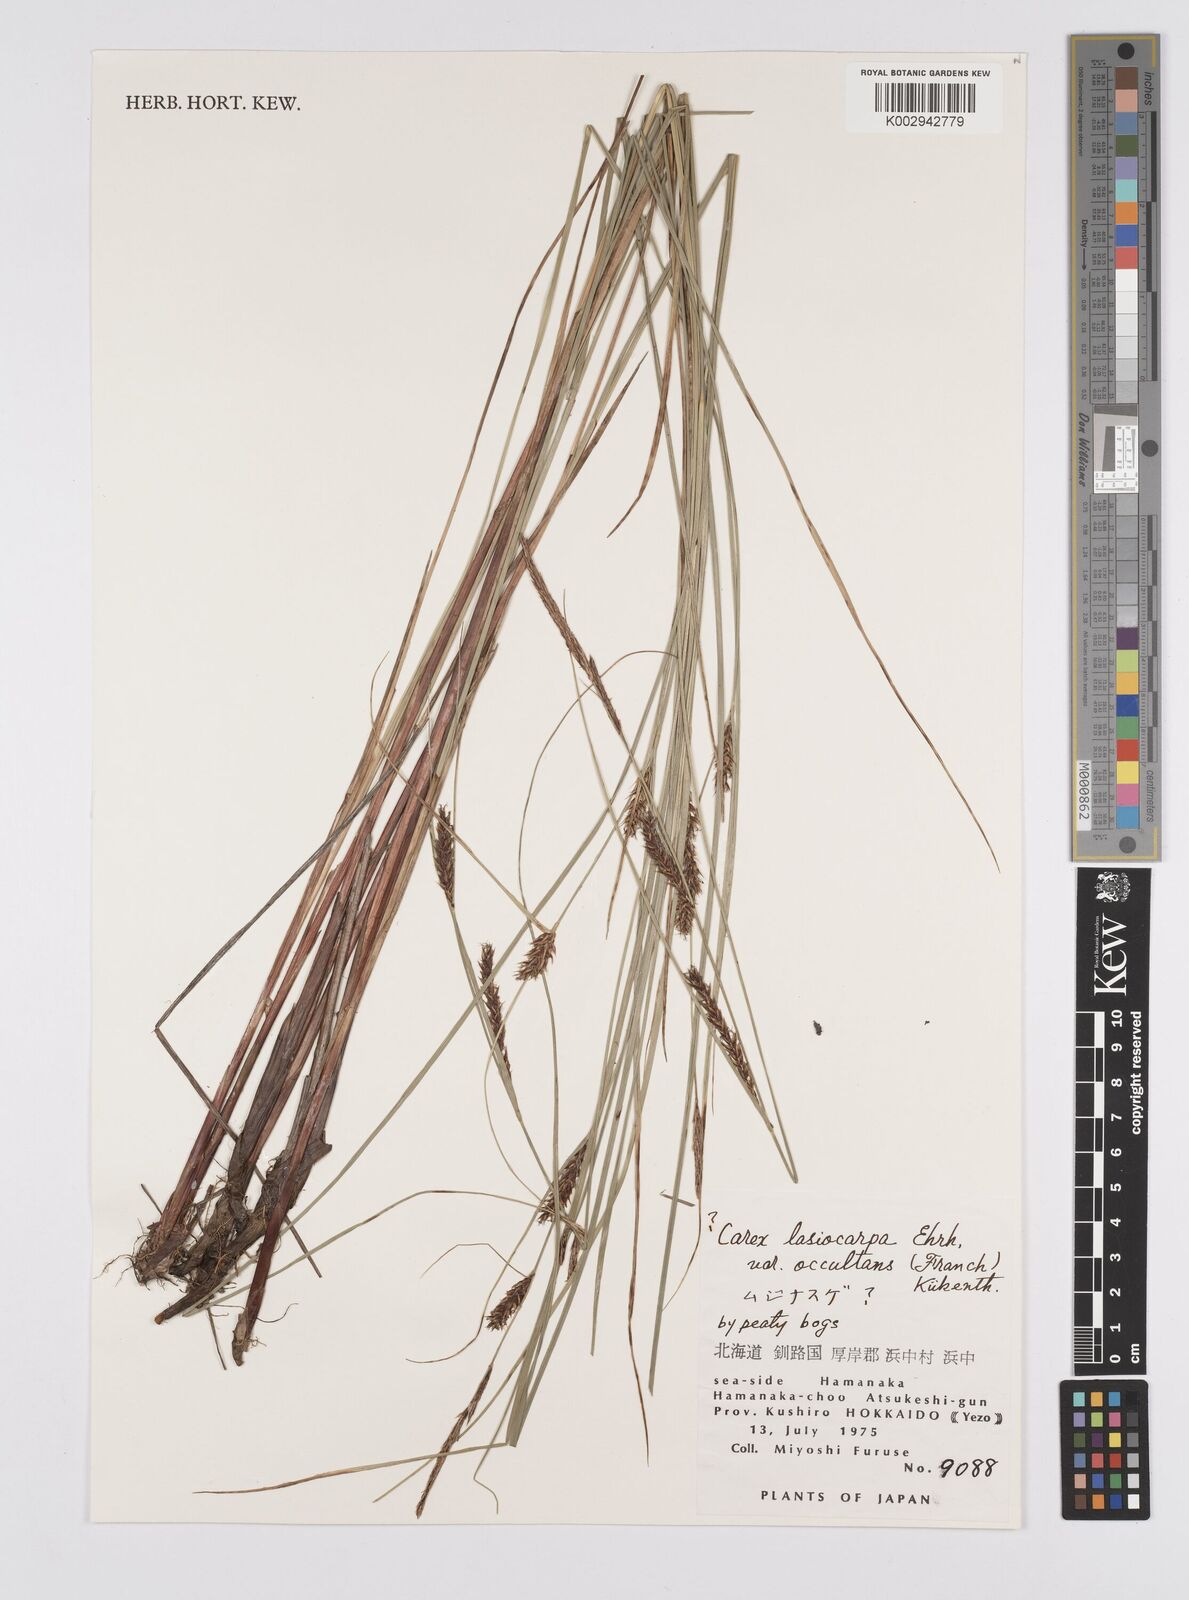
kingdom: Plantae
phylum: Tracheophyta
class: Liliopsida
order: Poales
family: Cyperaceae
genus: Carex
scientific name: Carex lasiocarpa
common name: Slender sedge
